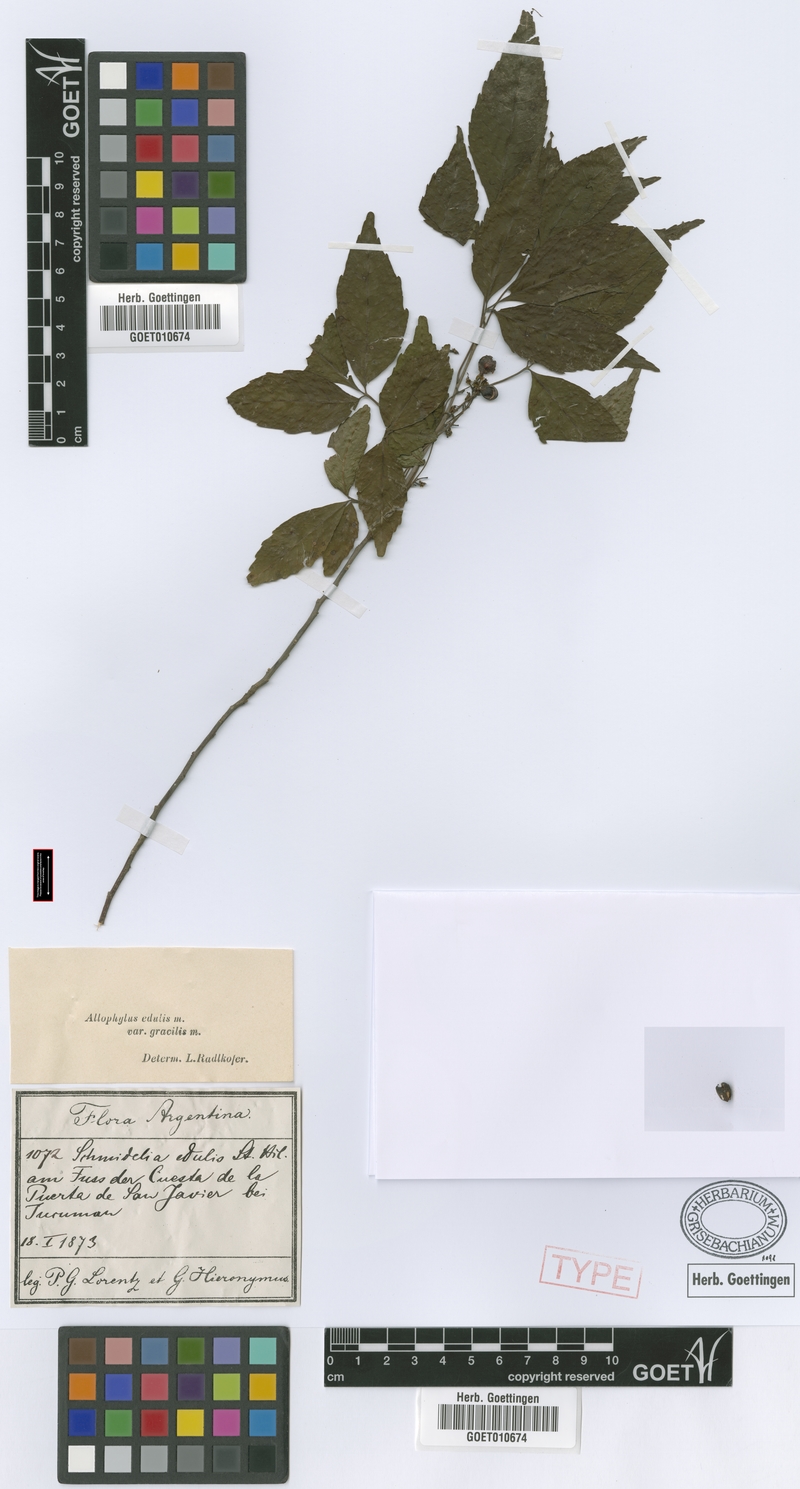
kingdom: Plantae
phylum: Tracheophyta
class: Magnoliopsida
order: Sapindales
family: Sapindaceae
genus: Allophylus
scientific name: Allophylus edulis
